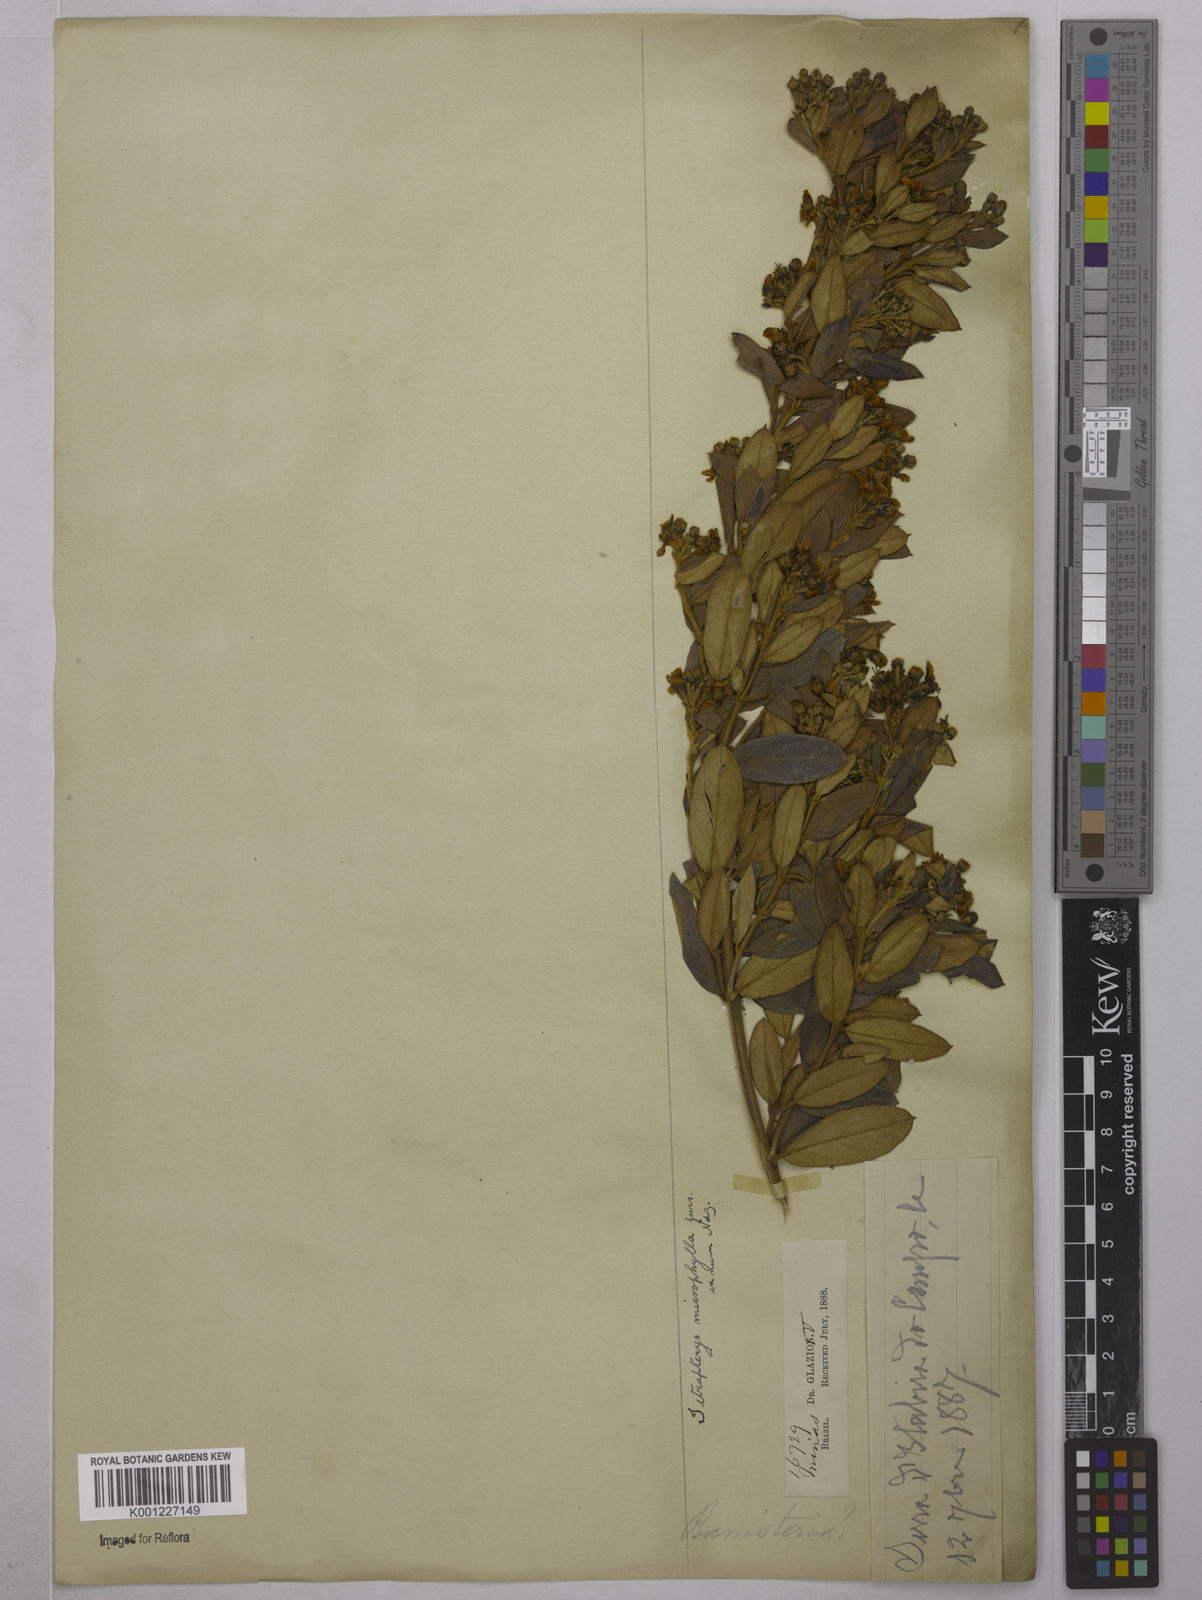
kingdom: Plantae
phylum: Tracheophyta
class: Magnoliopsida
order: Malpighiales
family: Malpighiaceae
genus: Glicophyllum
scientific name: Glicophyllum microphyllum
